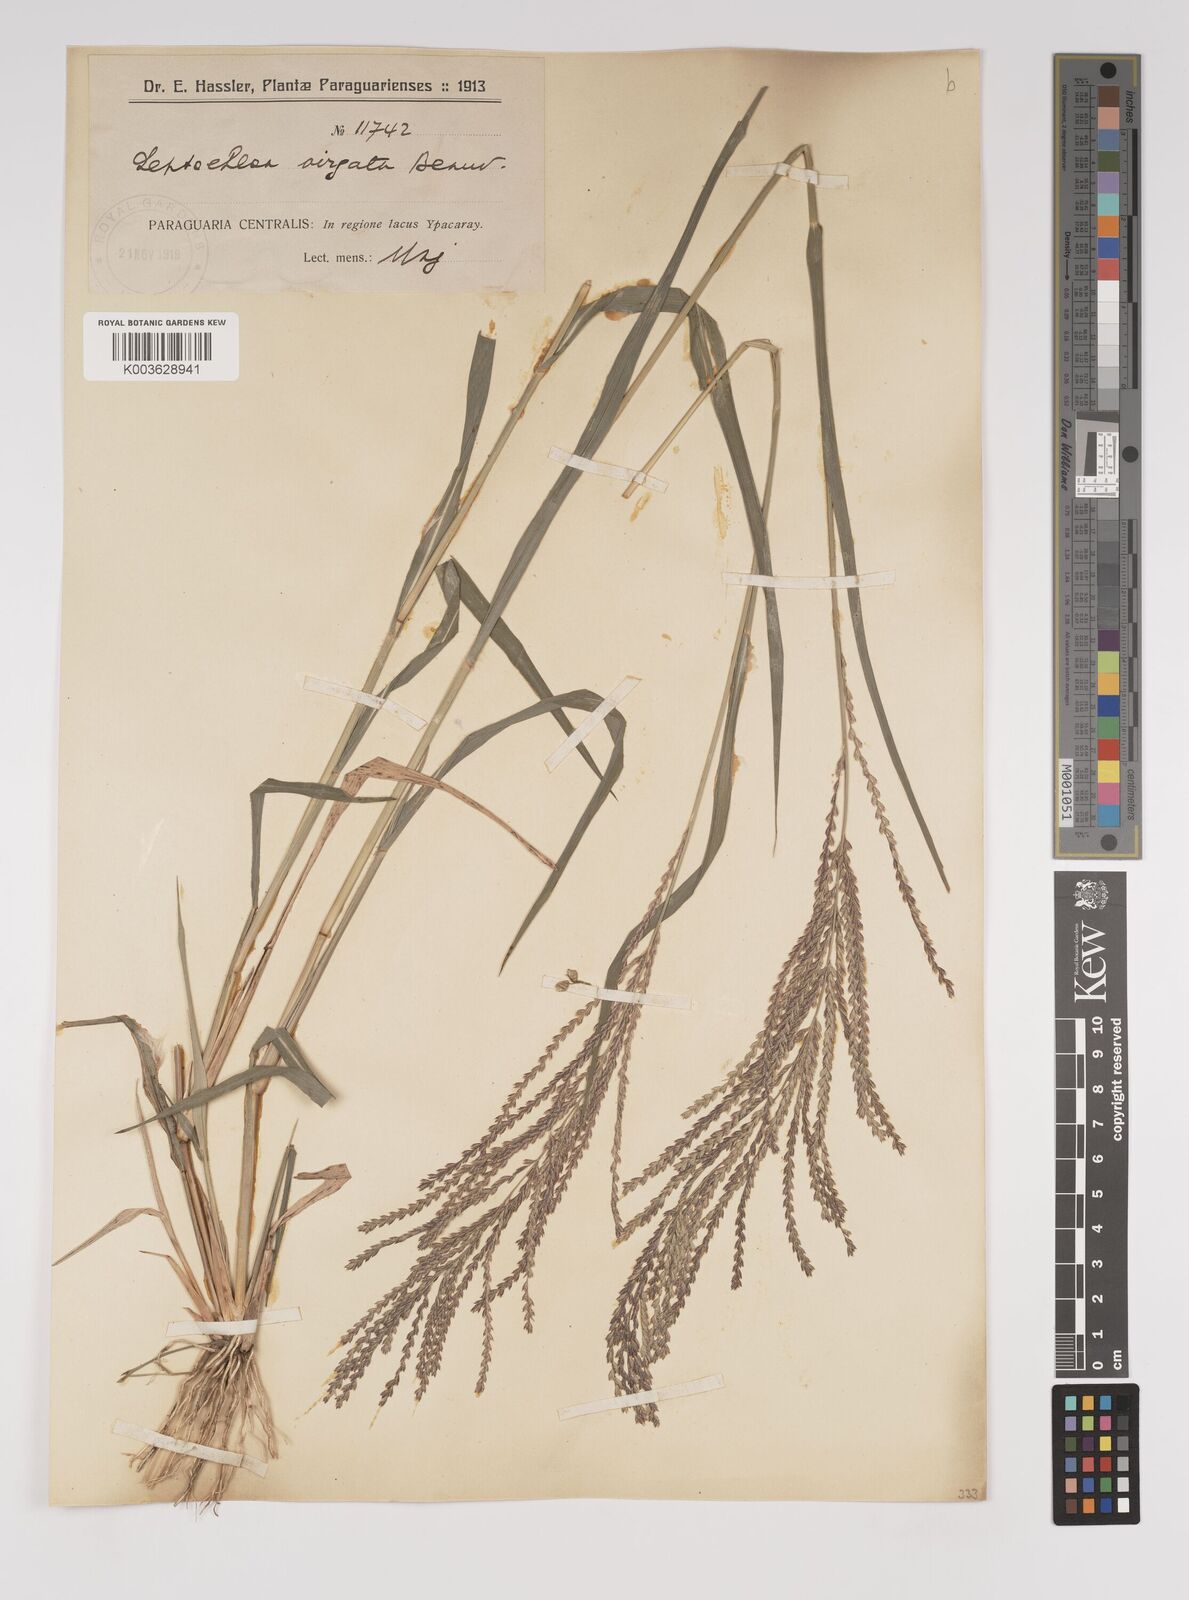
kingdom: Plantae
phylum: Tracheophyta
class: Liliopsida
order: Poales
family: Poaceae
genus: Leptochloa
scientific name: Leptochloa virgata
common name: Tropical sprangletop
